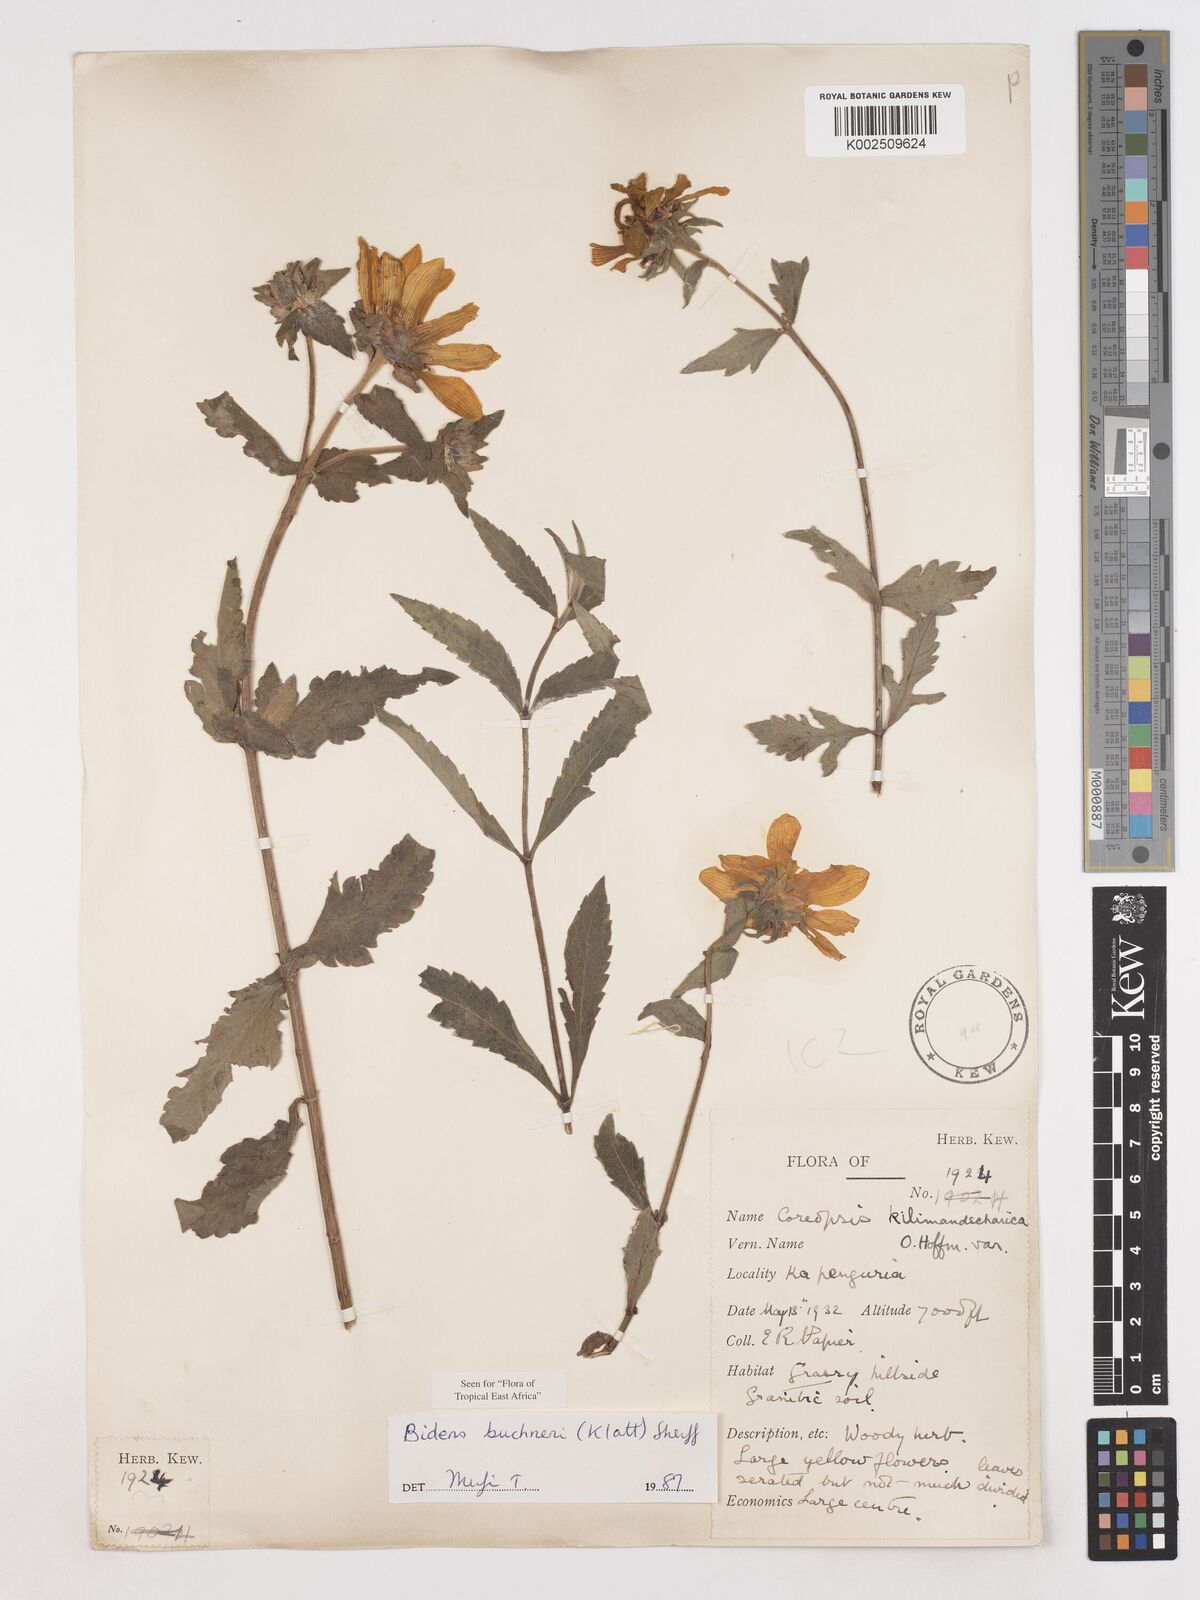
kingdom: Plantae
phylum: Tracheophyta
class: Magnoliopsida
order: Asterales
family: Asteraceae
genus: Bidens
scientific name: Bidens buchneri
